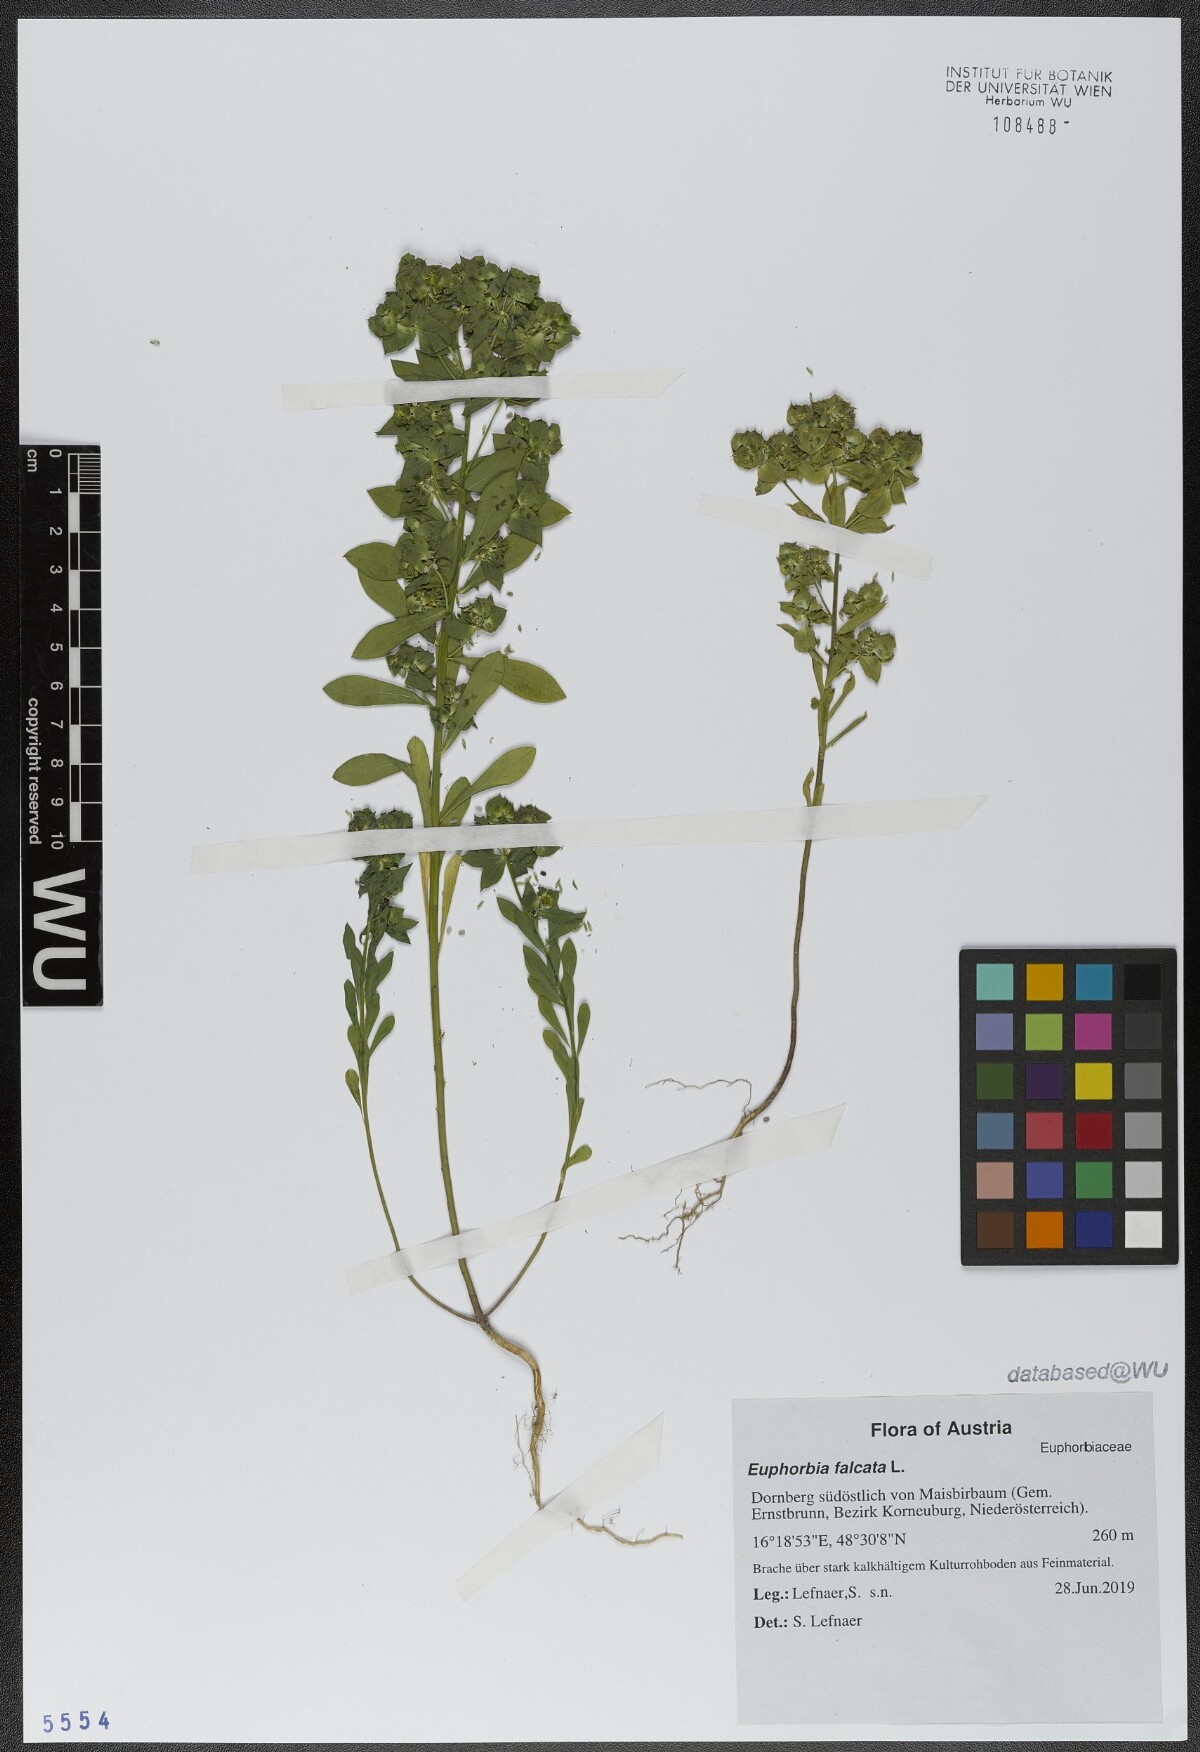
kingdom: Plantae
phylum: Tracheophyta
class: Magnoliopsida
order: Malpighiales
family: Euphorbiaceae
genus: Euphorbia
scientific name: Euphorbia falcata
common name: Sickle spurge
